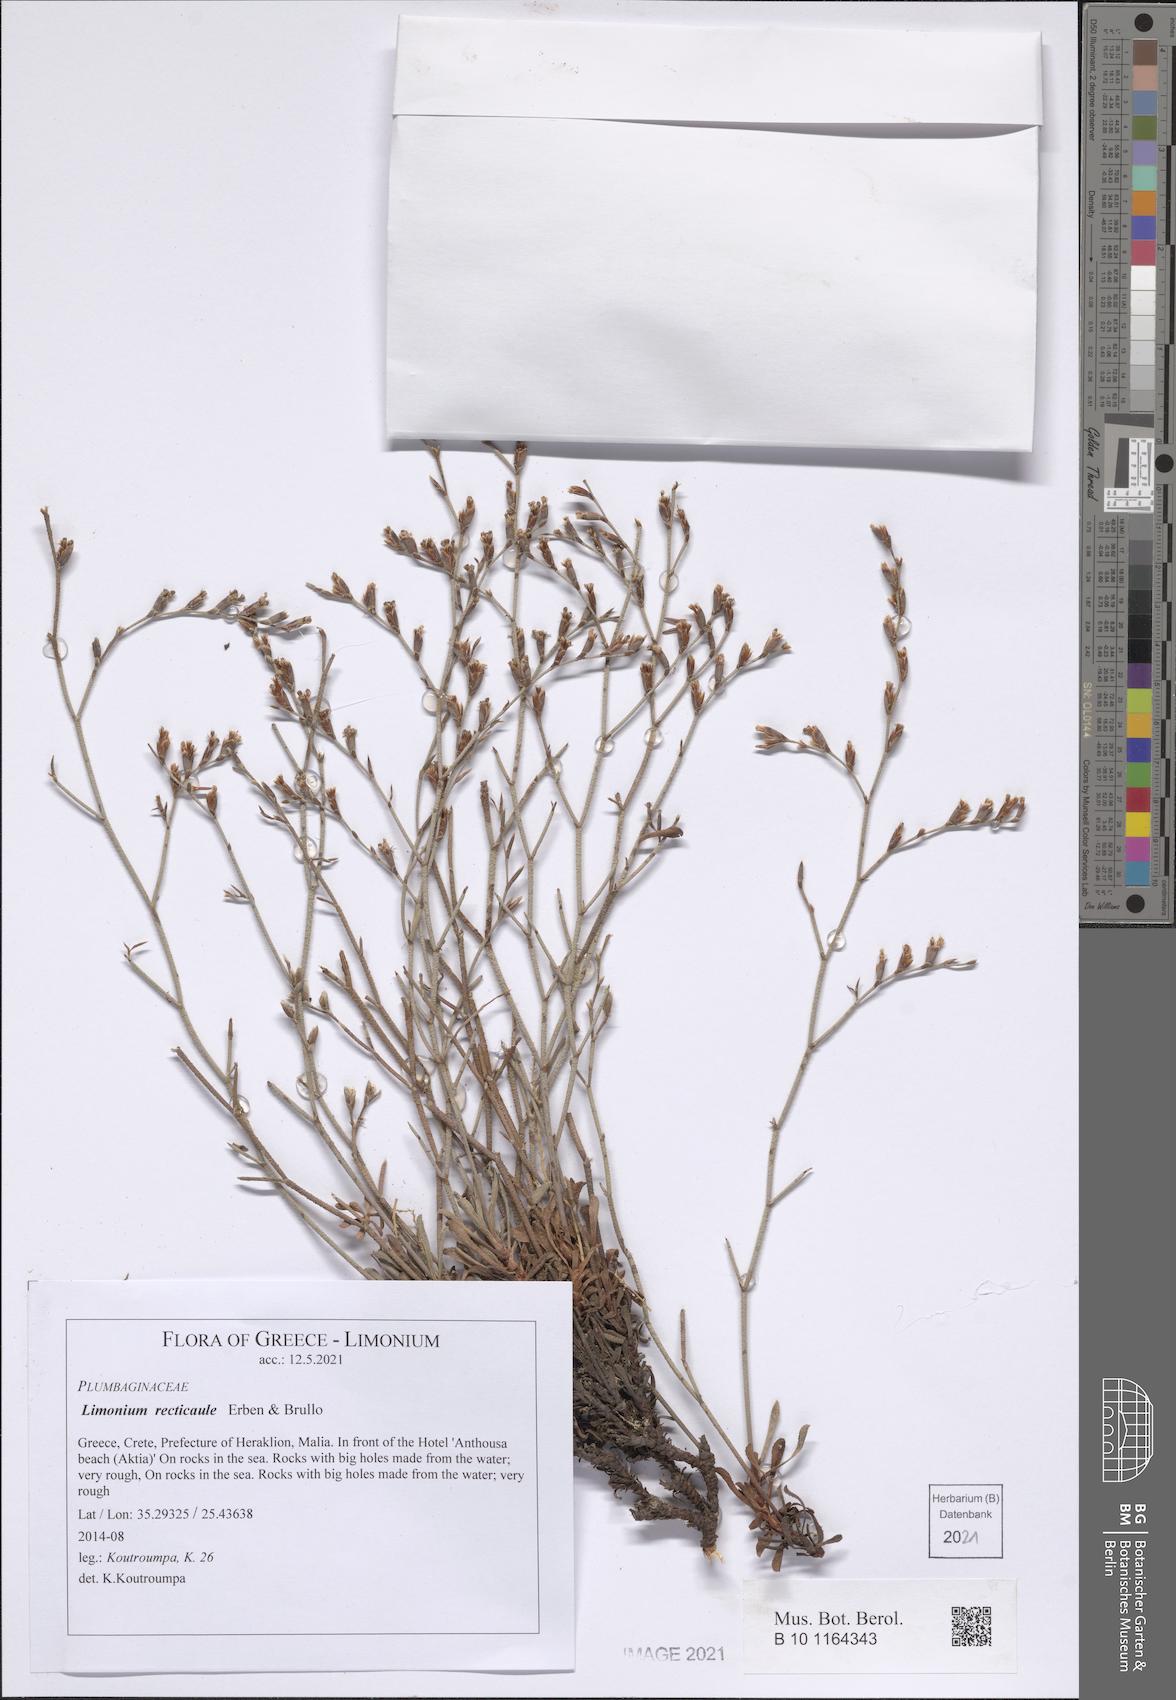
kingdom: Plantae
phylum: Tracheophyta
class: Magnoliopsida
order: Caryophyllales
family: Plumbaginaceae
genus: Limonium
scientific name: Limonium recticaule
